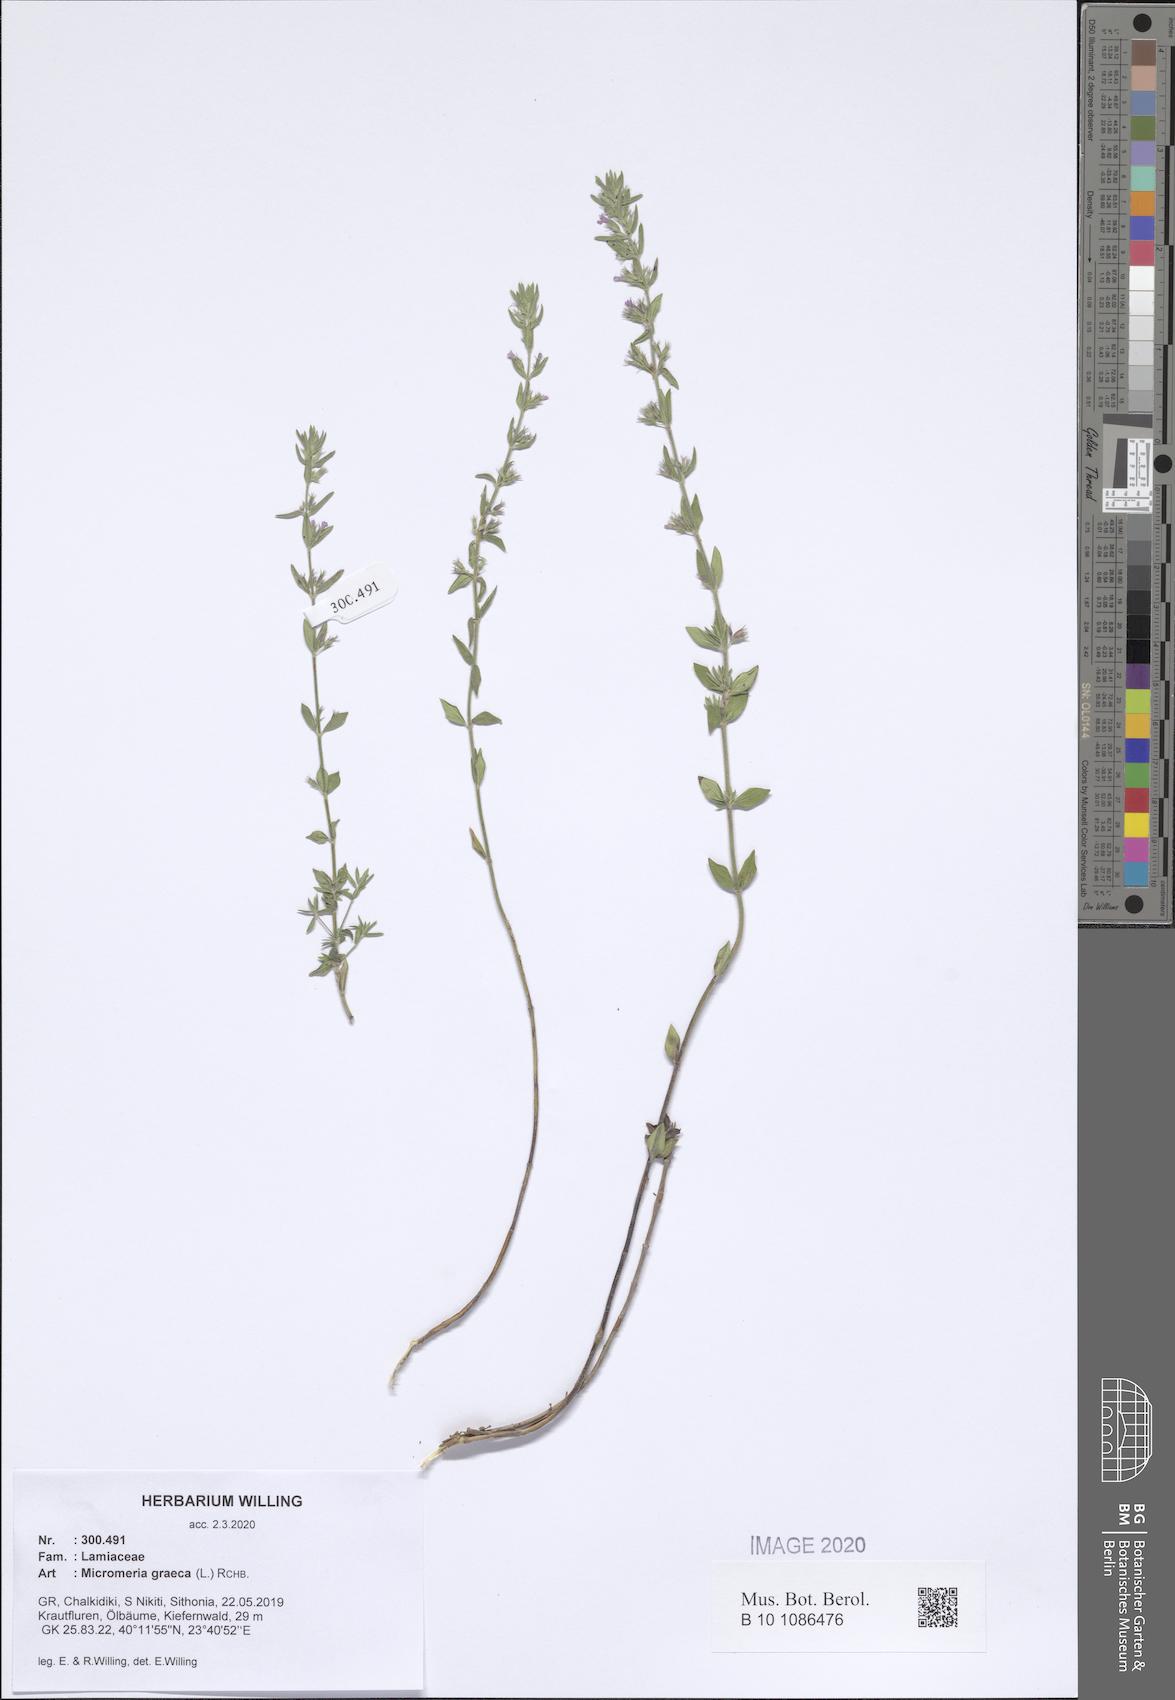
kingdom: Plantae
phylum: Tracheophyta
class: Magnoliopsida
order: Lamiales
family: Lamiaceae
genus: Micromeria
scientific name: Micromeria graeca
